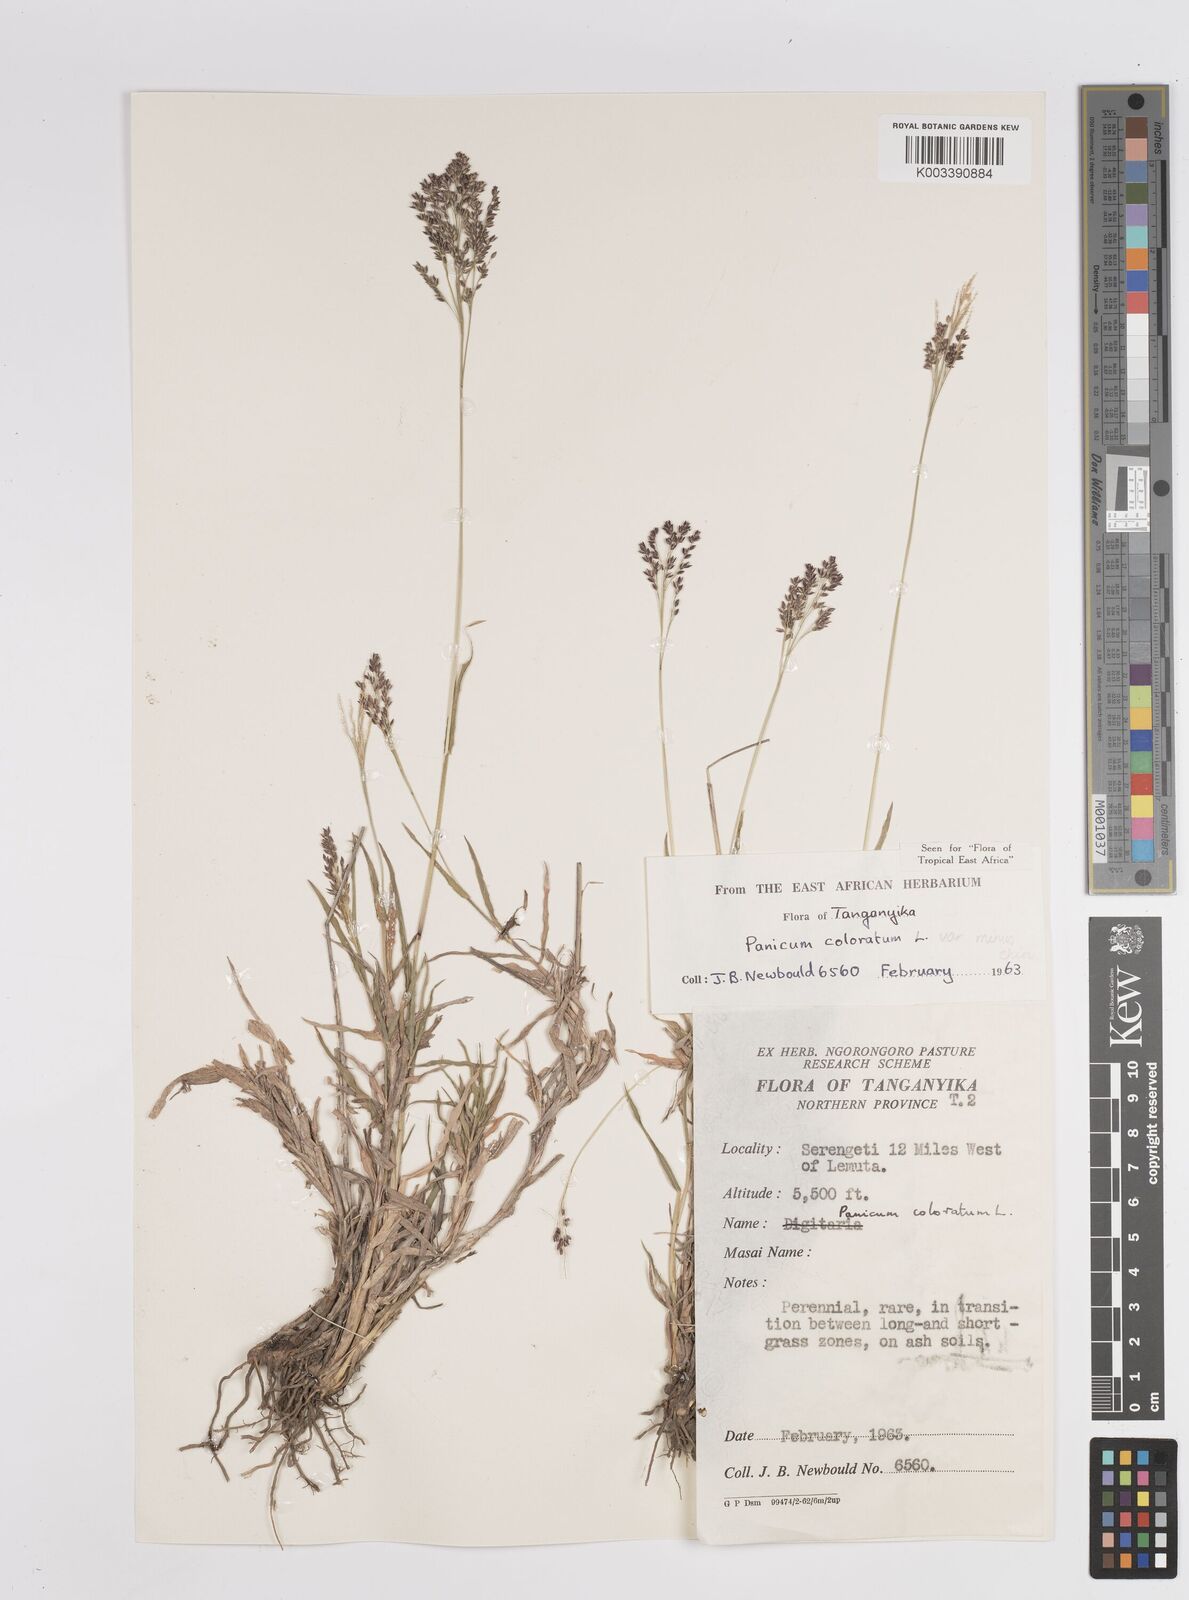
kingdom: Plantae
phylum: Tracheophyta
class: Liliopsida
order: Poales
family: Poaceae
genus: Panicum
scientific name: Panicum coloratum
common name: Kleingrass
